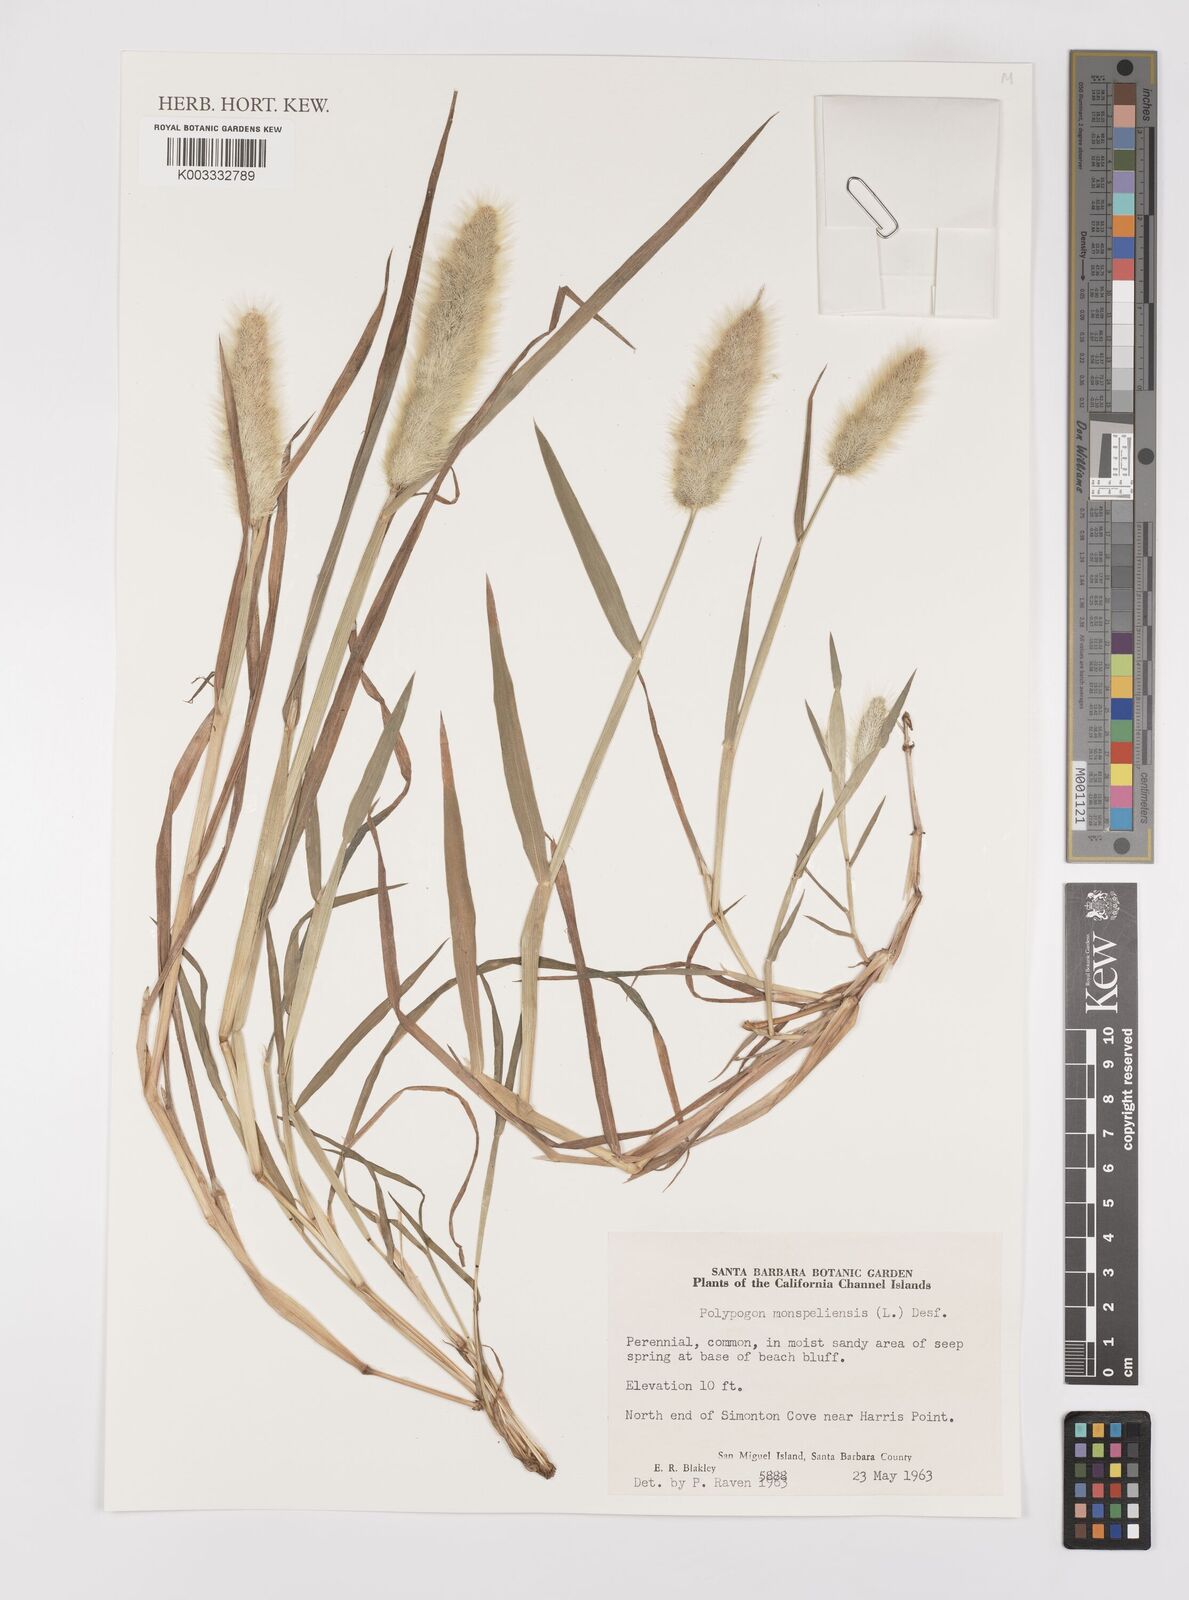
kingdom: Plantae
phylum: Tracheophyta
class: Liliopsida
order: Poales
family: Poaceae
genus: Polypogon
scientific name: Polypogon monspeliensis
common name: Annual rabbitsfoot grass
